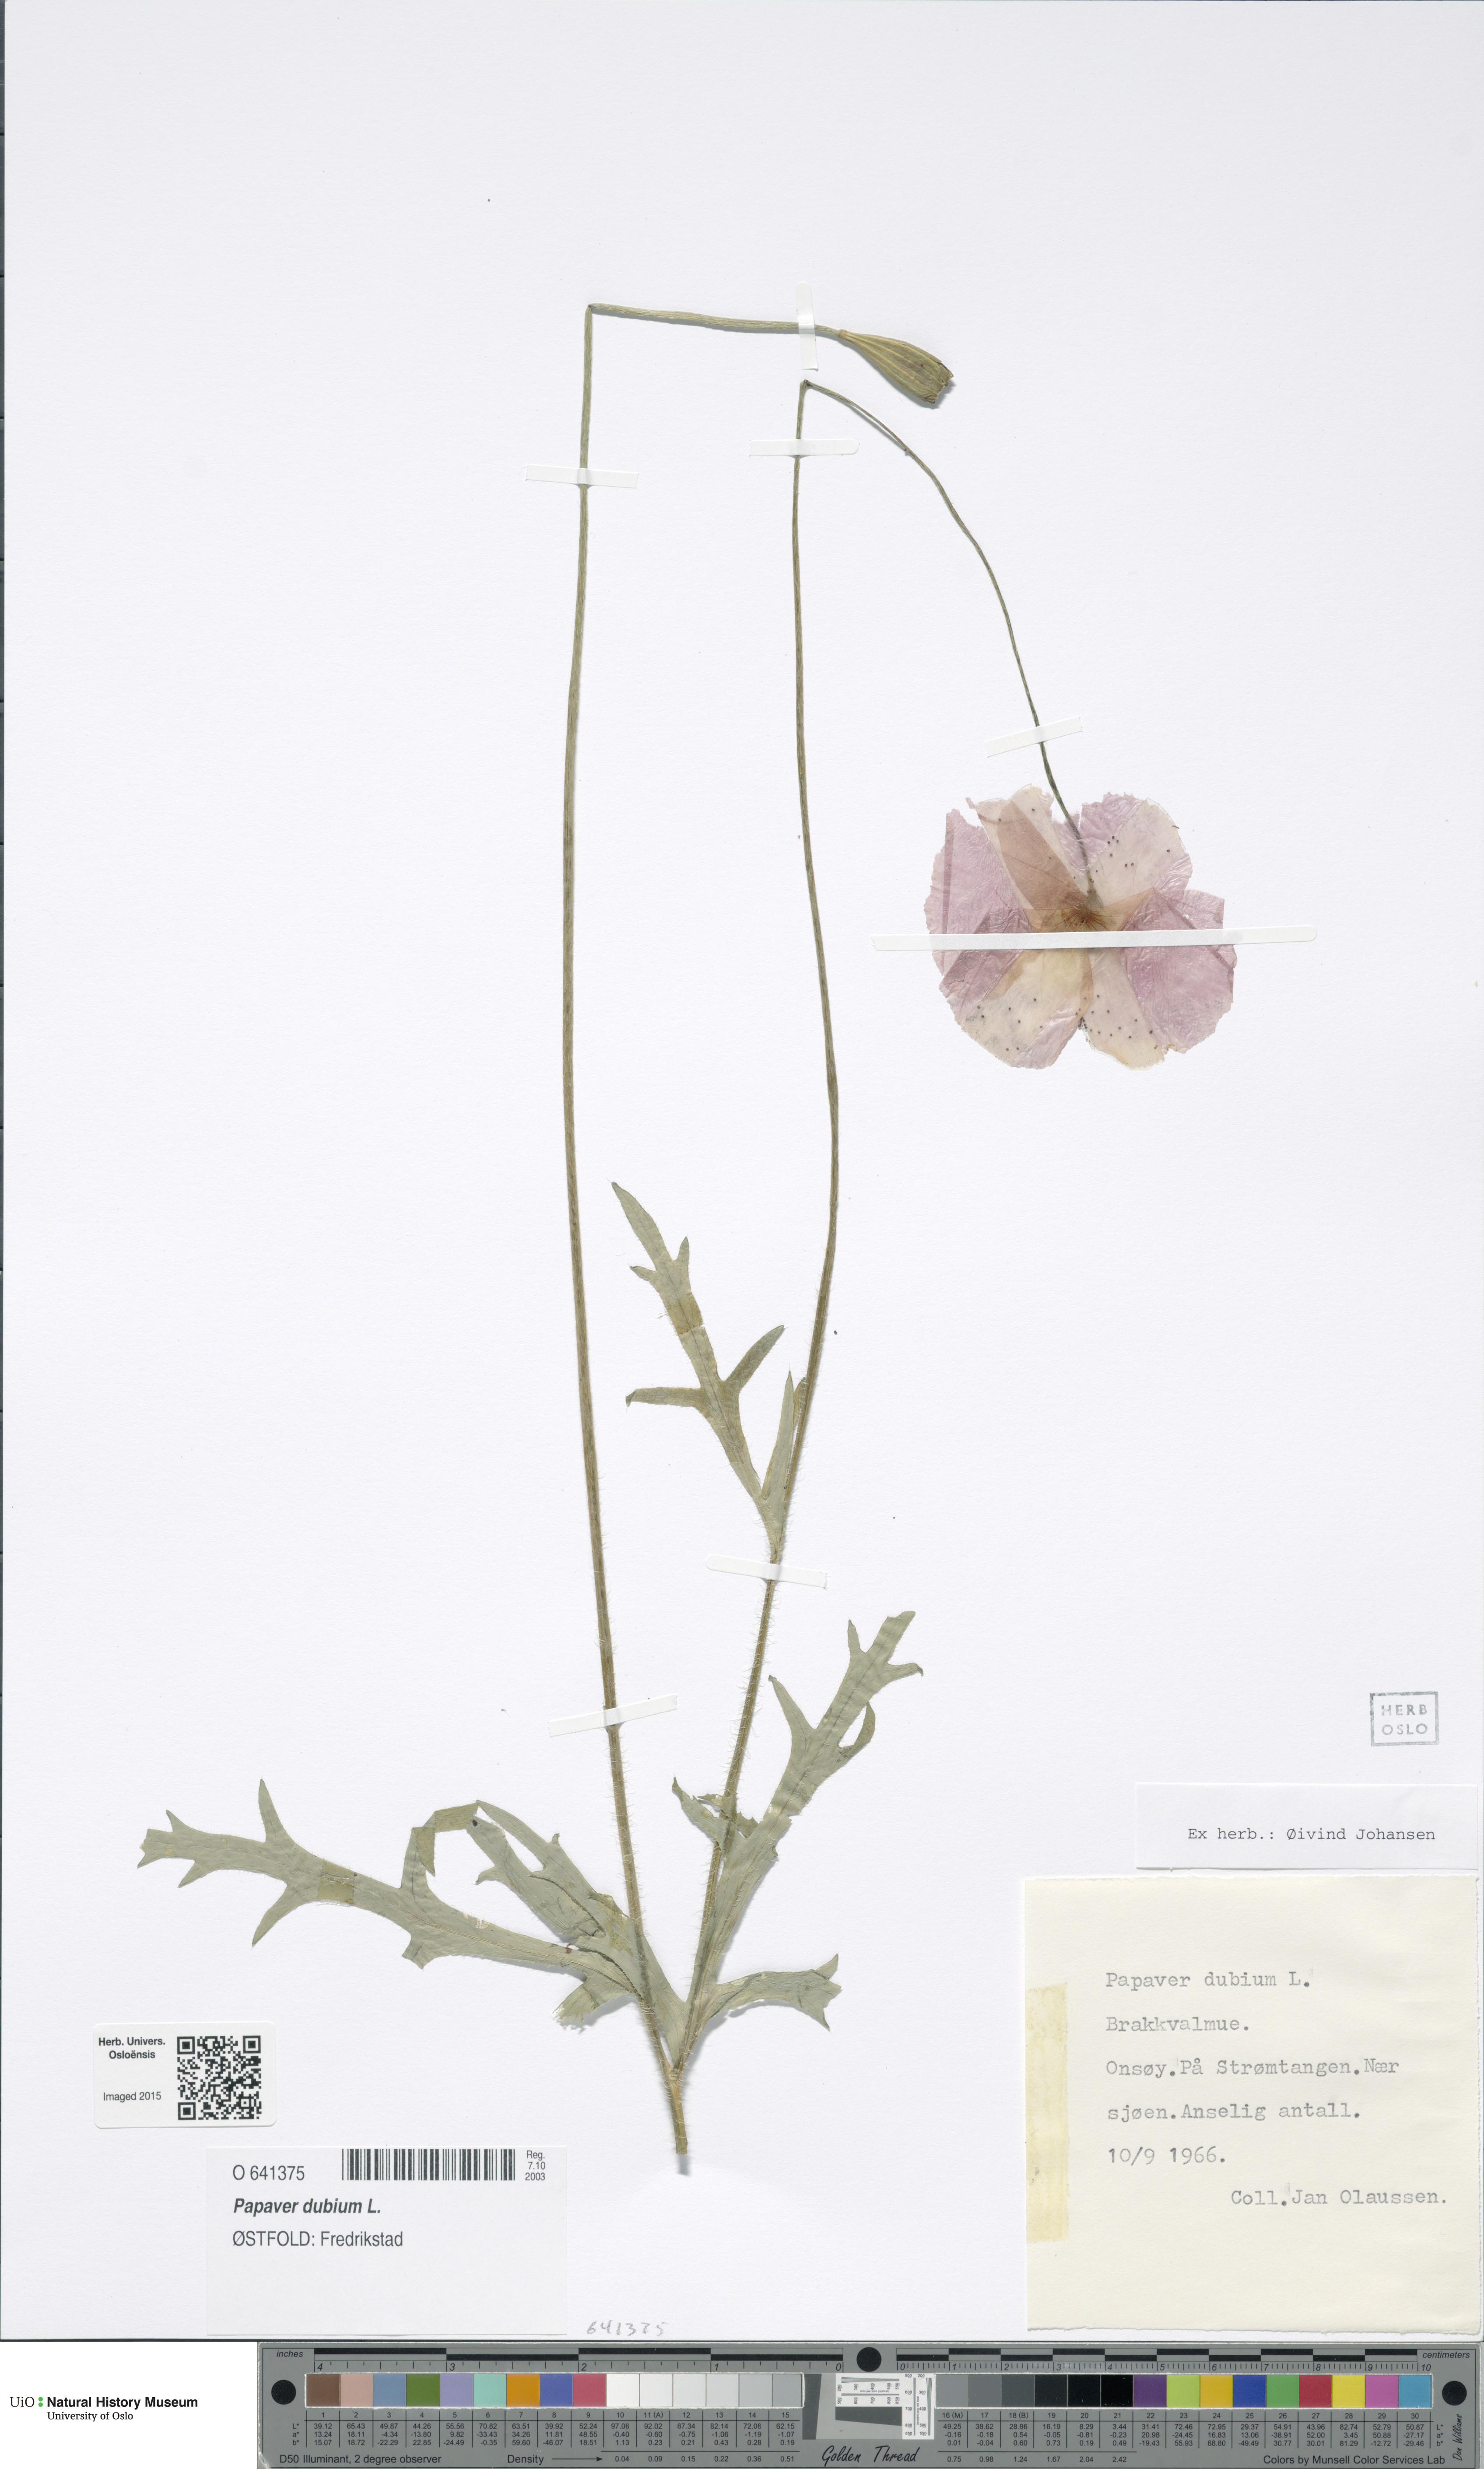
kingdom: Plantae
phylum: Tracheophyta
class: Magnoliopsida
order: Ranunculales
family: Papaveraceae
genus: Papaver
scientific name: Papaver dubium
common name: Long-headed poppy
